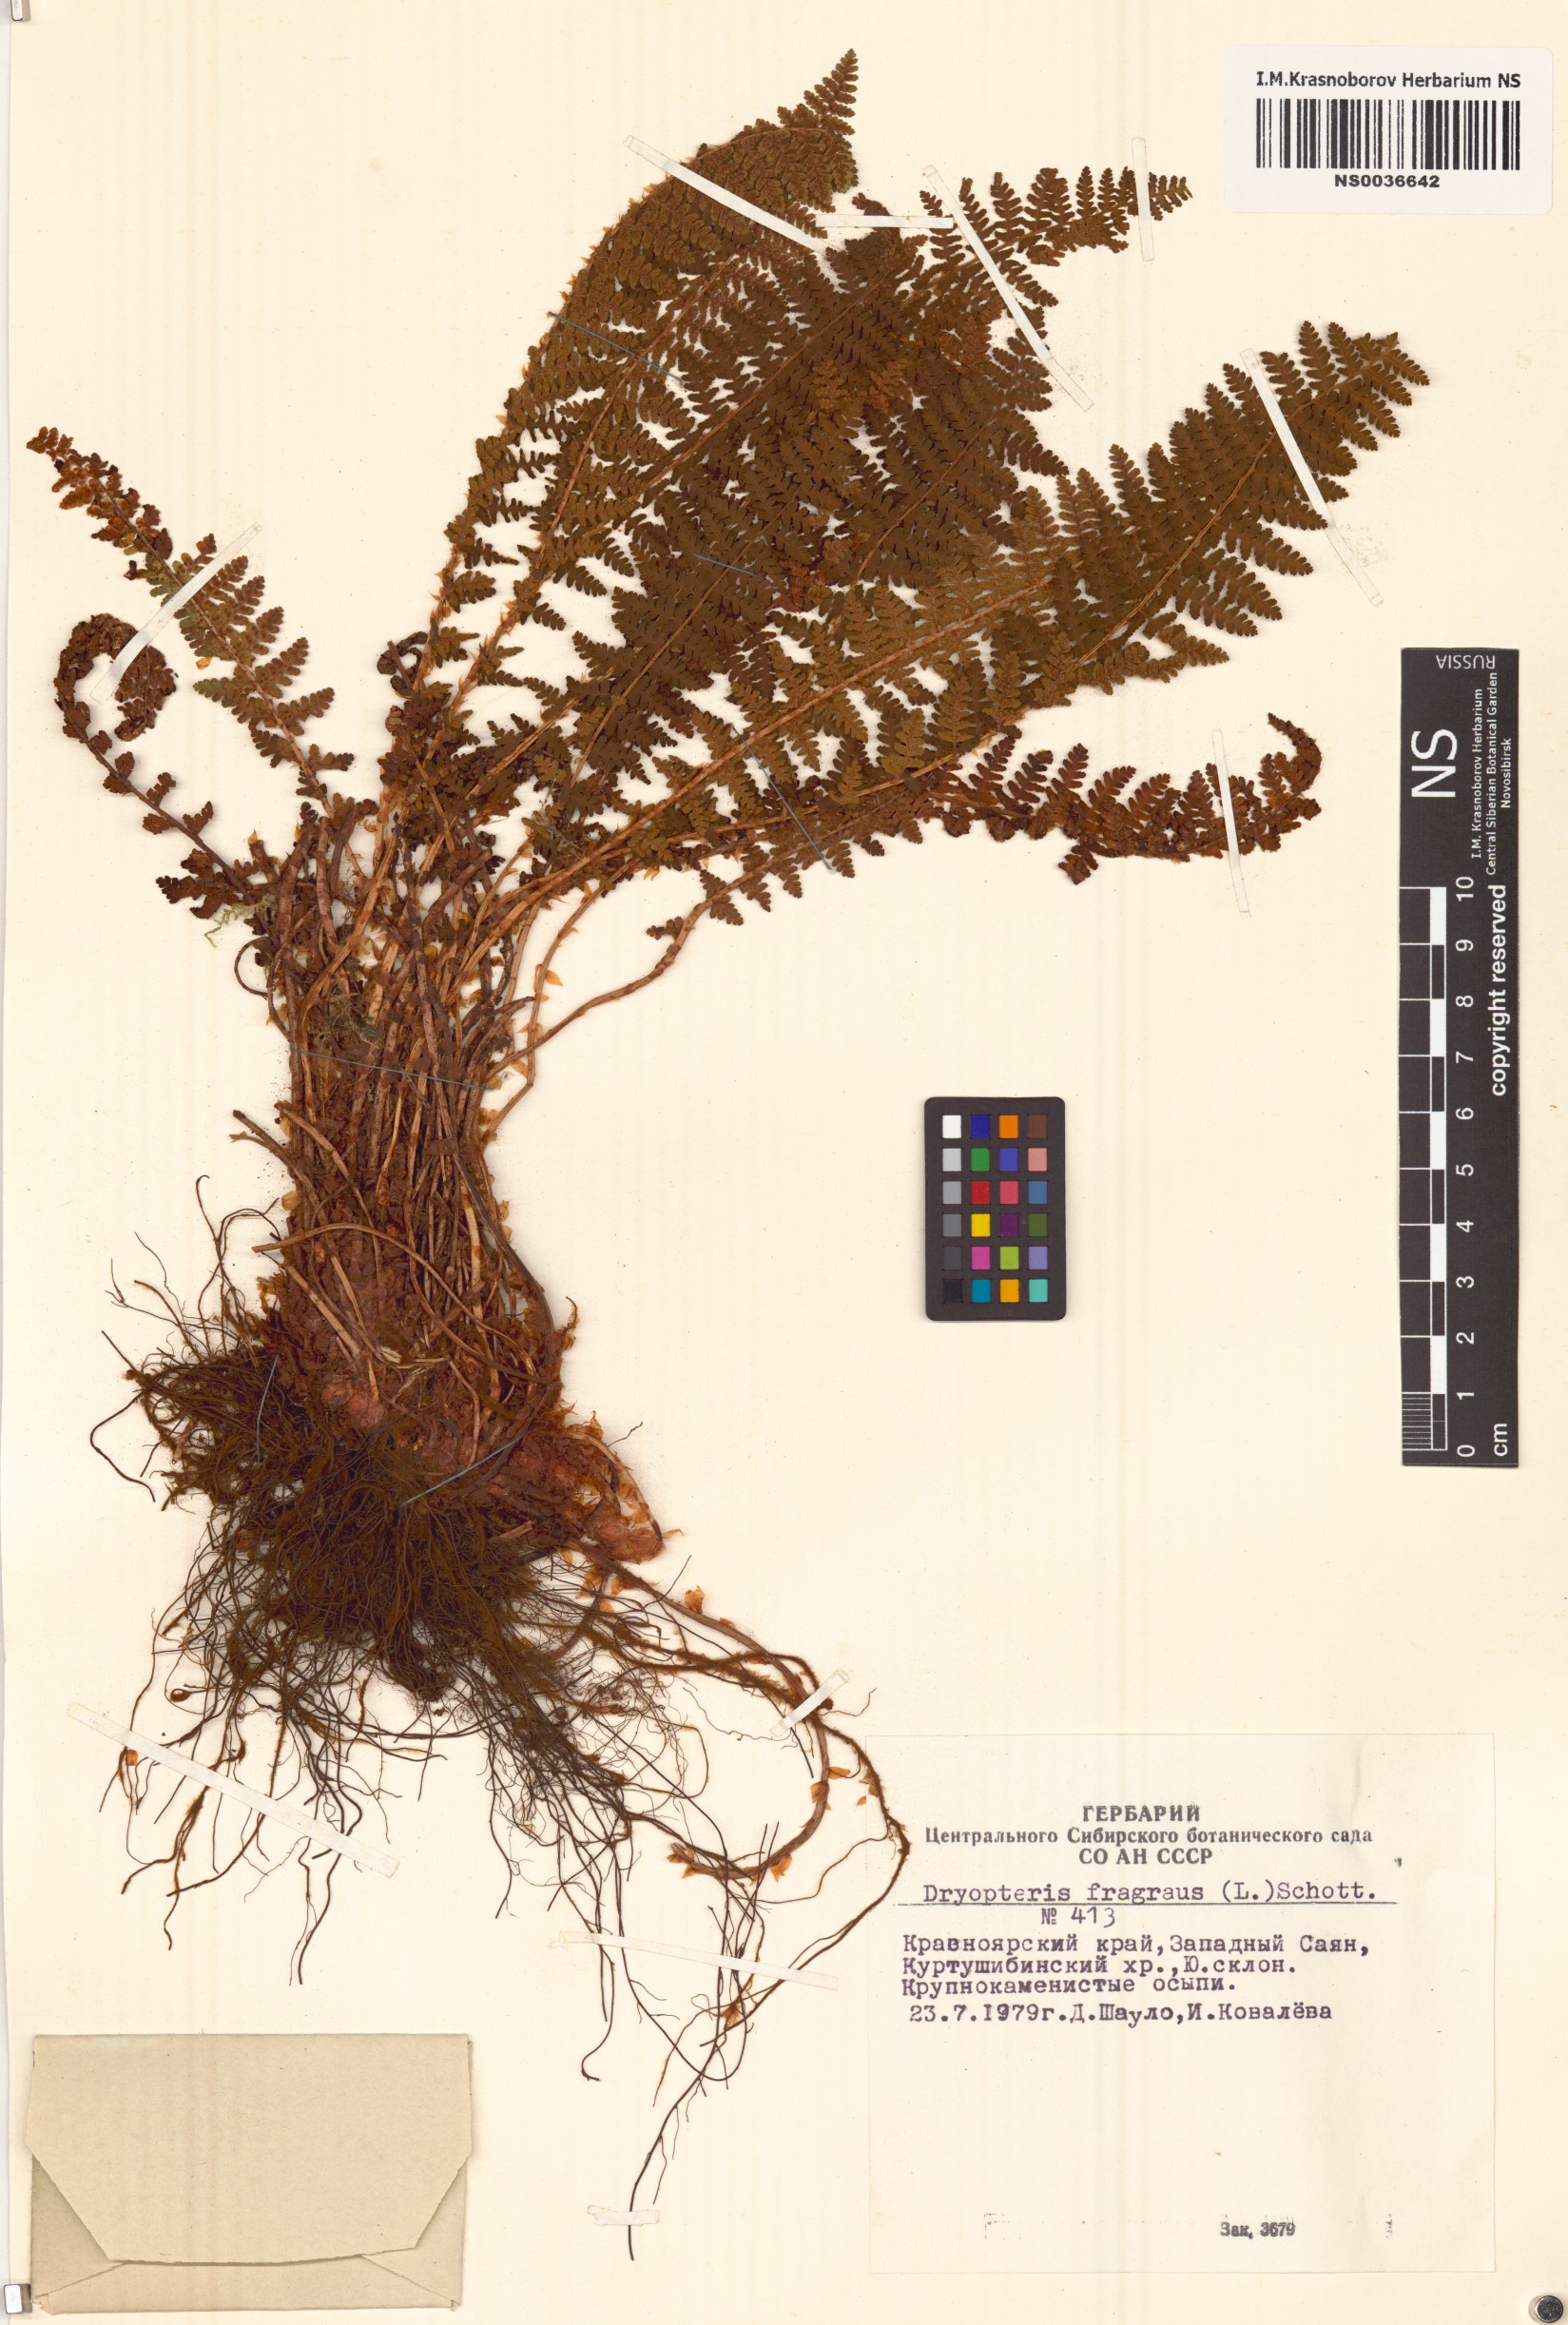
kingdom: Plantae
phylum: Tracheophyta
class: Polypodiopsida
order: Polypodiales
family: Dryopteridaceae
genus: Dryopteris
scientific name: Dryopteris fragrans
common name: Fragrant wood fern
